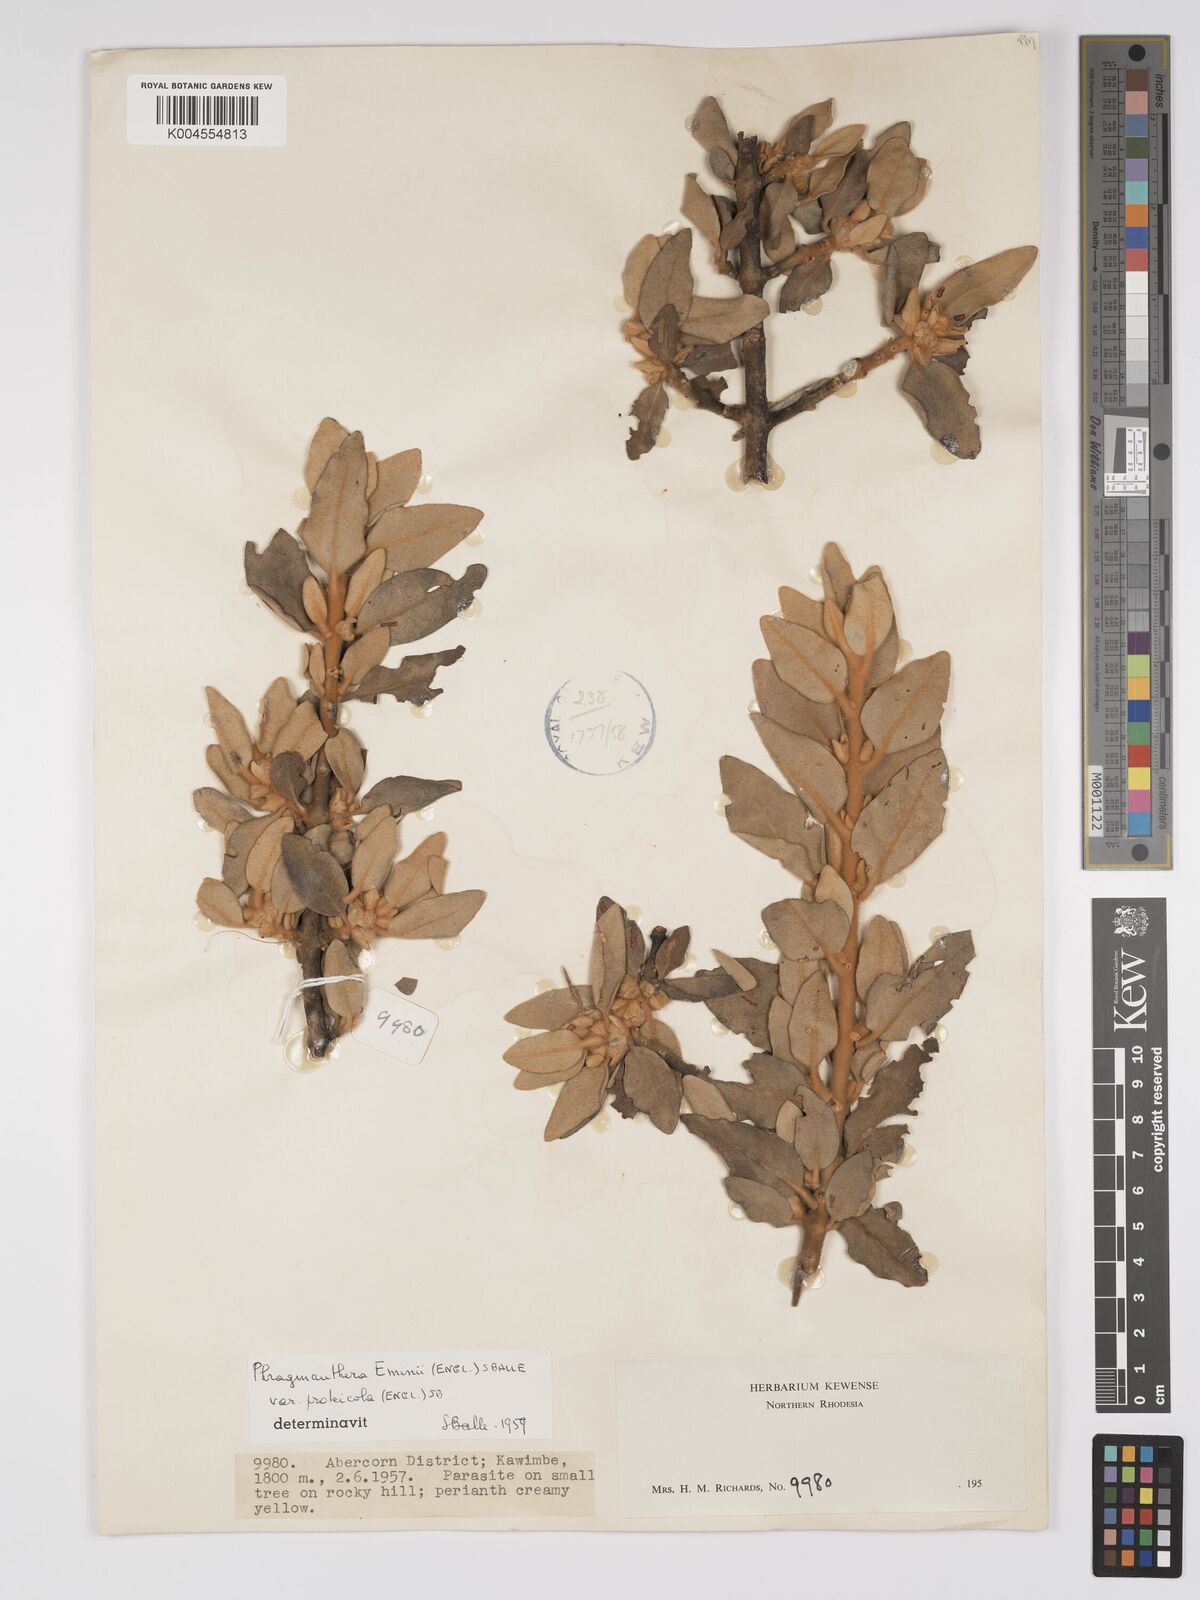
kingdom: Plantae
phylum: Tracheophyta
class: Magnoliopsida
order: Santalales
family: Loranthaceae
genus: Phragmanthera
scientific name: Phragmanthera proteicola
